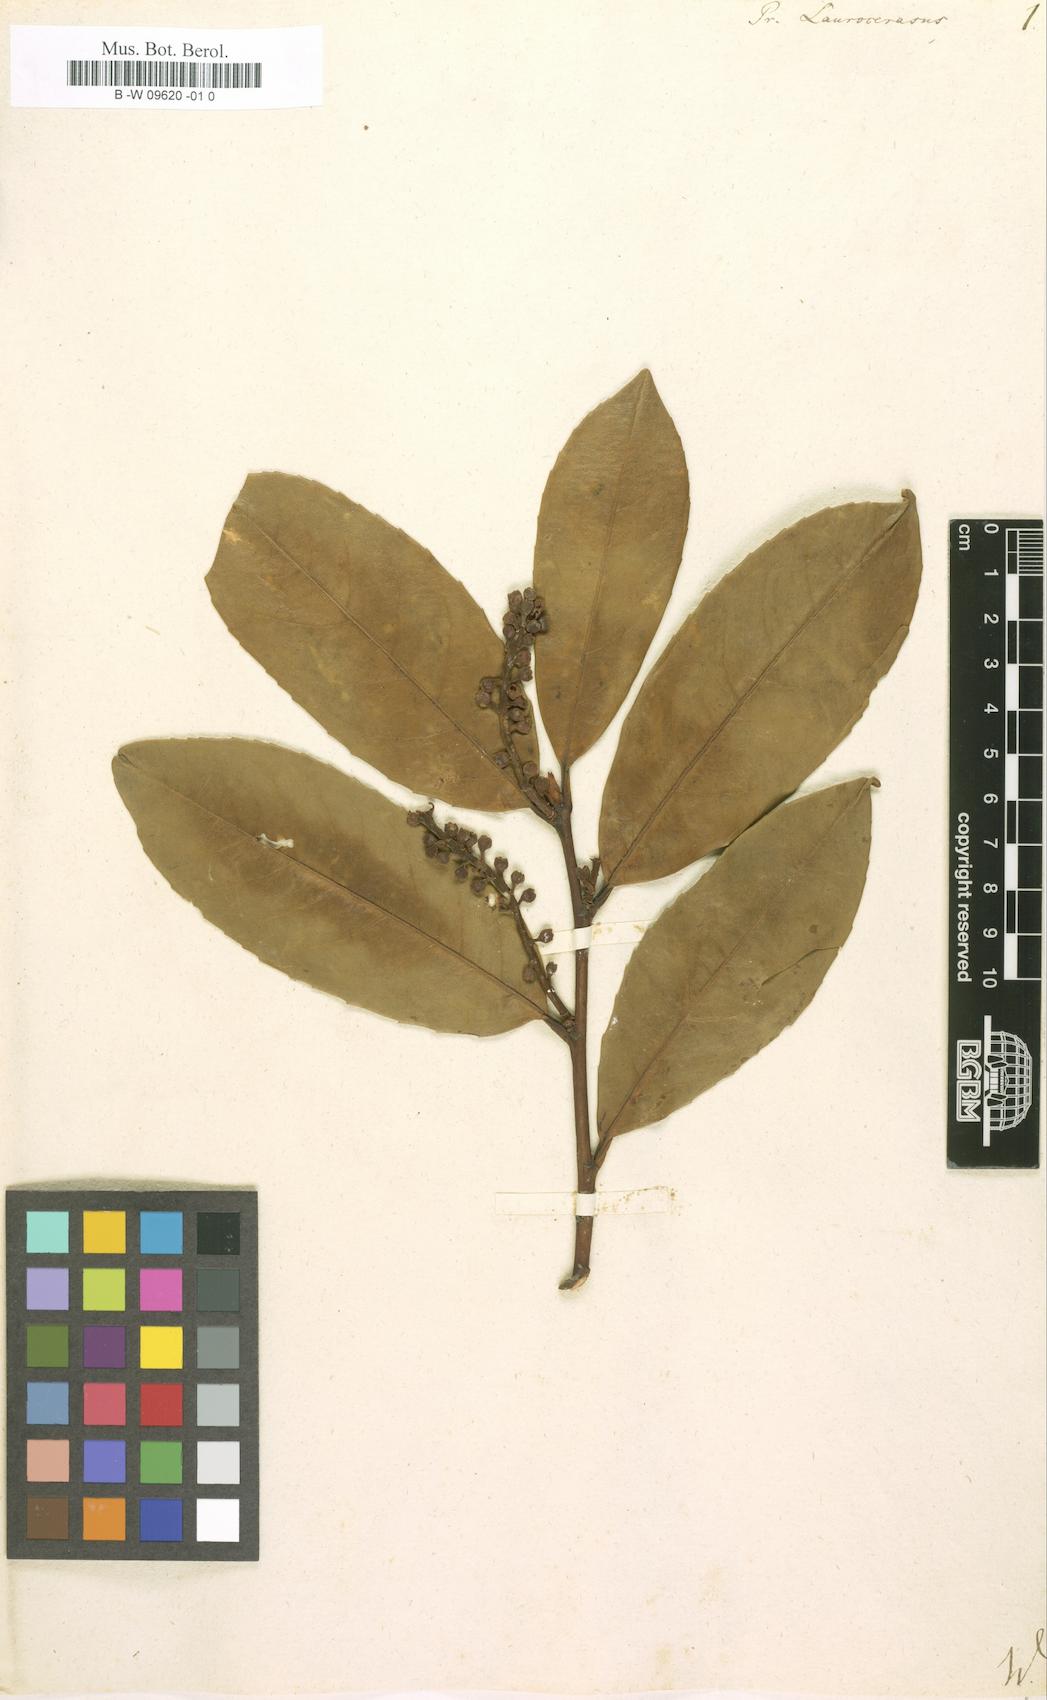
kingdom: Plantae
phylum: Tracheophyta
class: Magnoliopsida
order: Rosales
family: Rosaceae
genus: Prunus
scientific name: Prunus laurocerasus
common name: Cherry laurel
